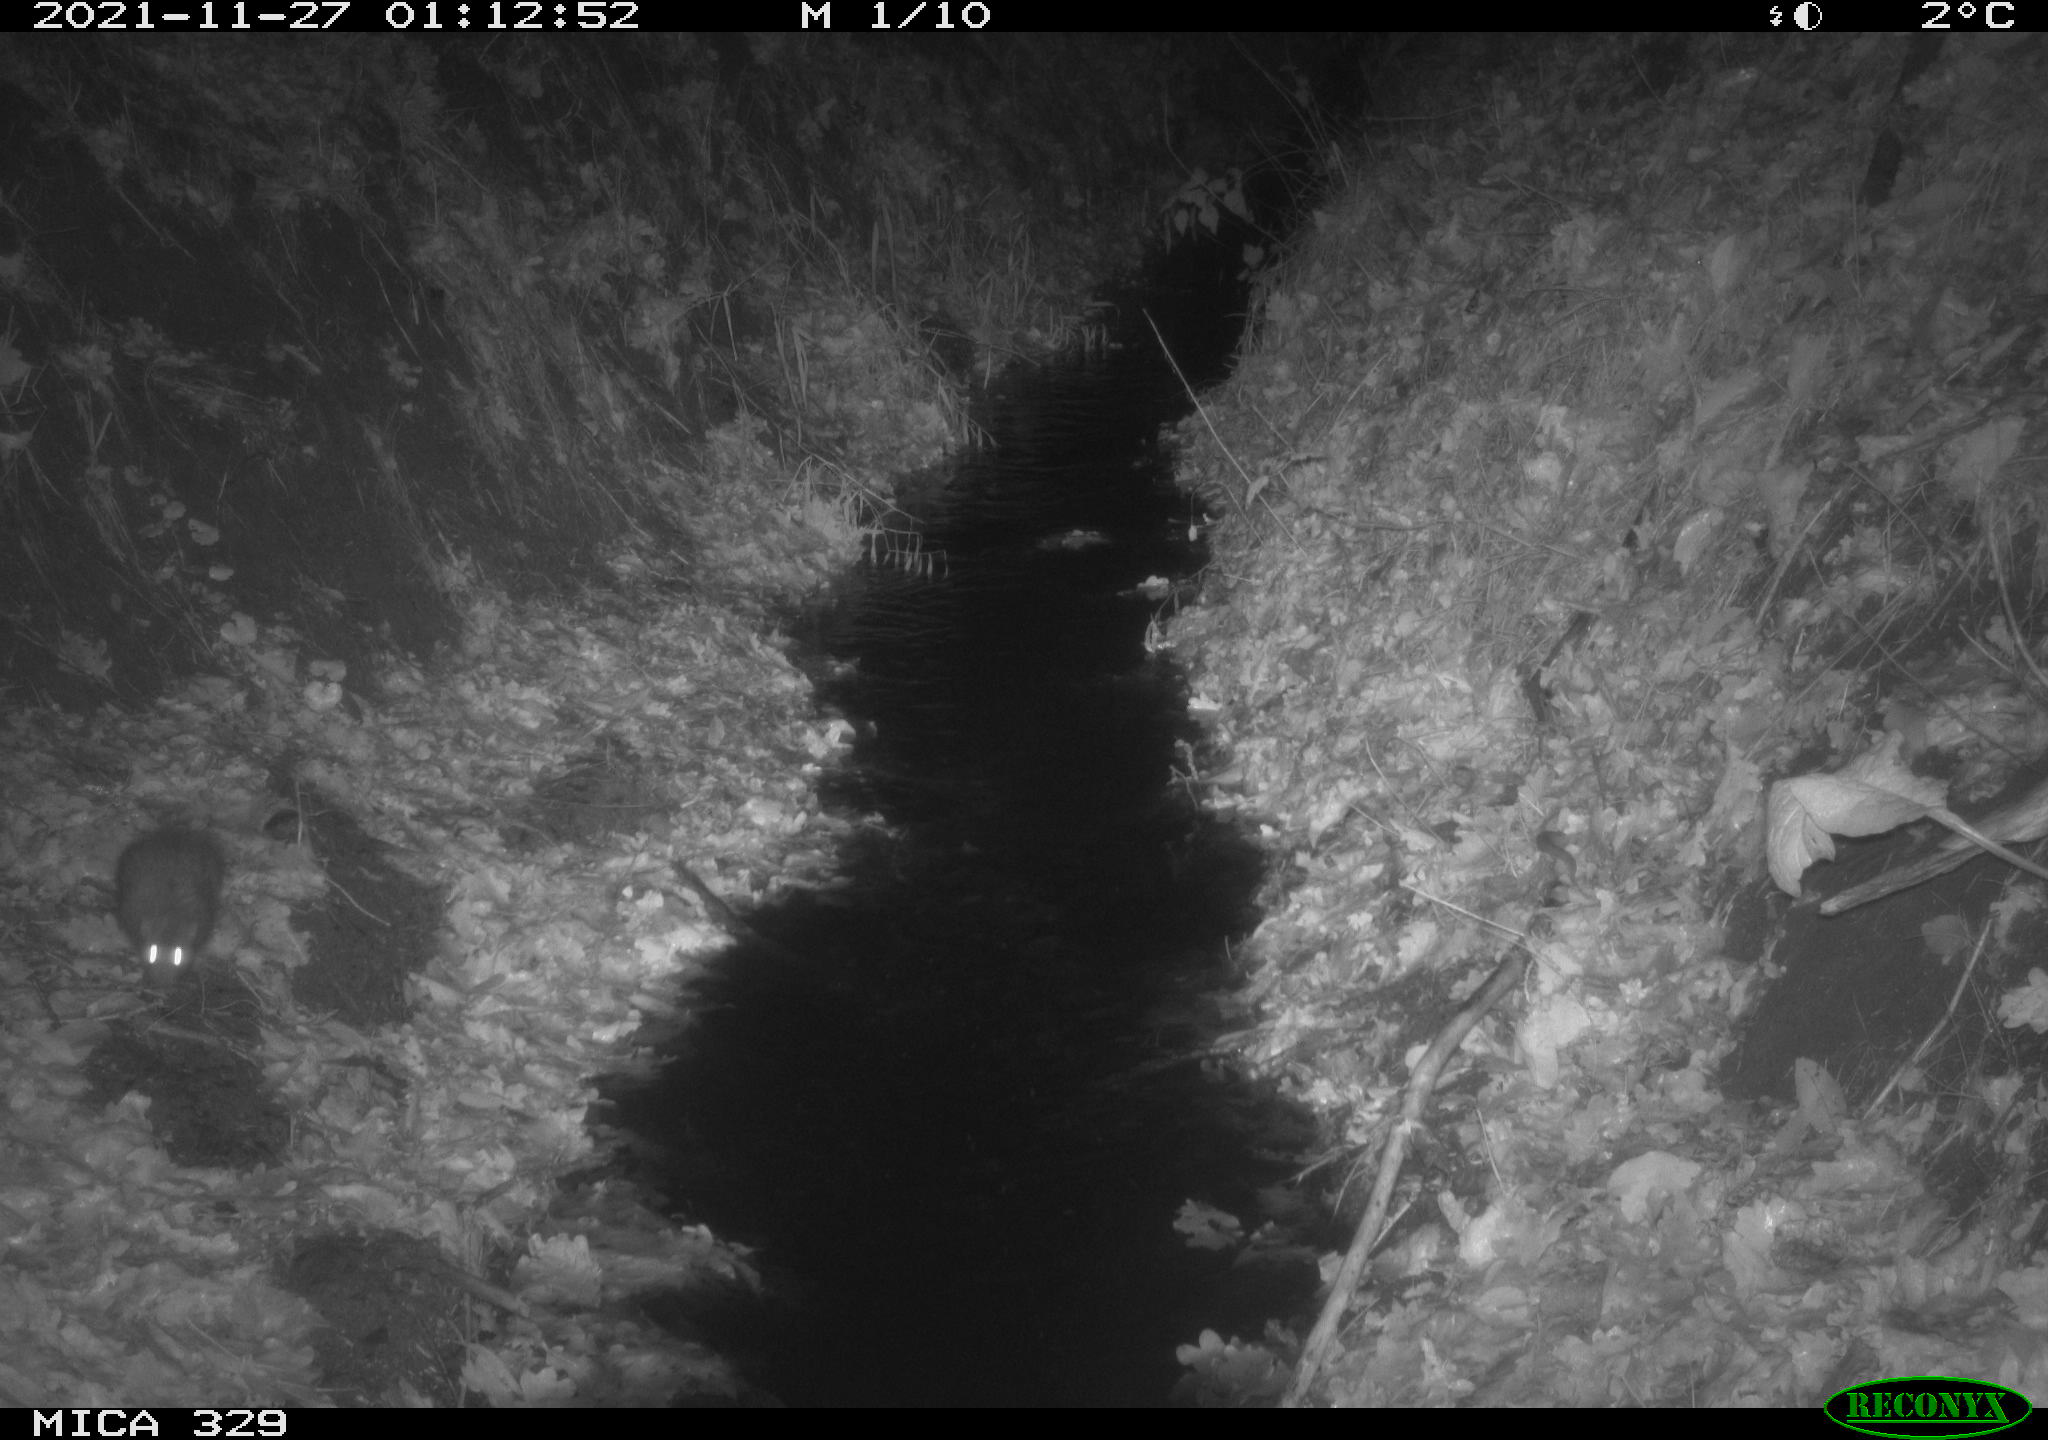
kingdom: Animalia
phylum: Chordata
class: Mammalia
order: Rodentia
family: Muridae
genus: Rattus
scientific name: Rattus norvegicus
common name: Brown rat
